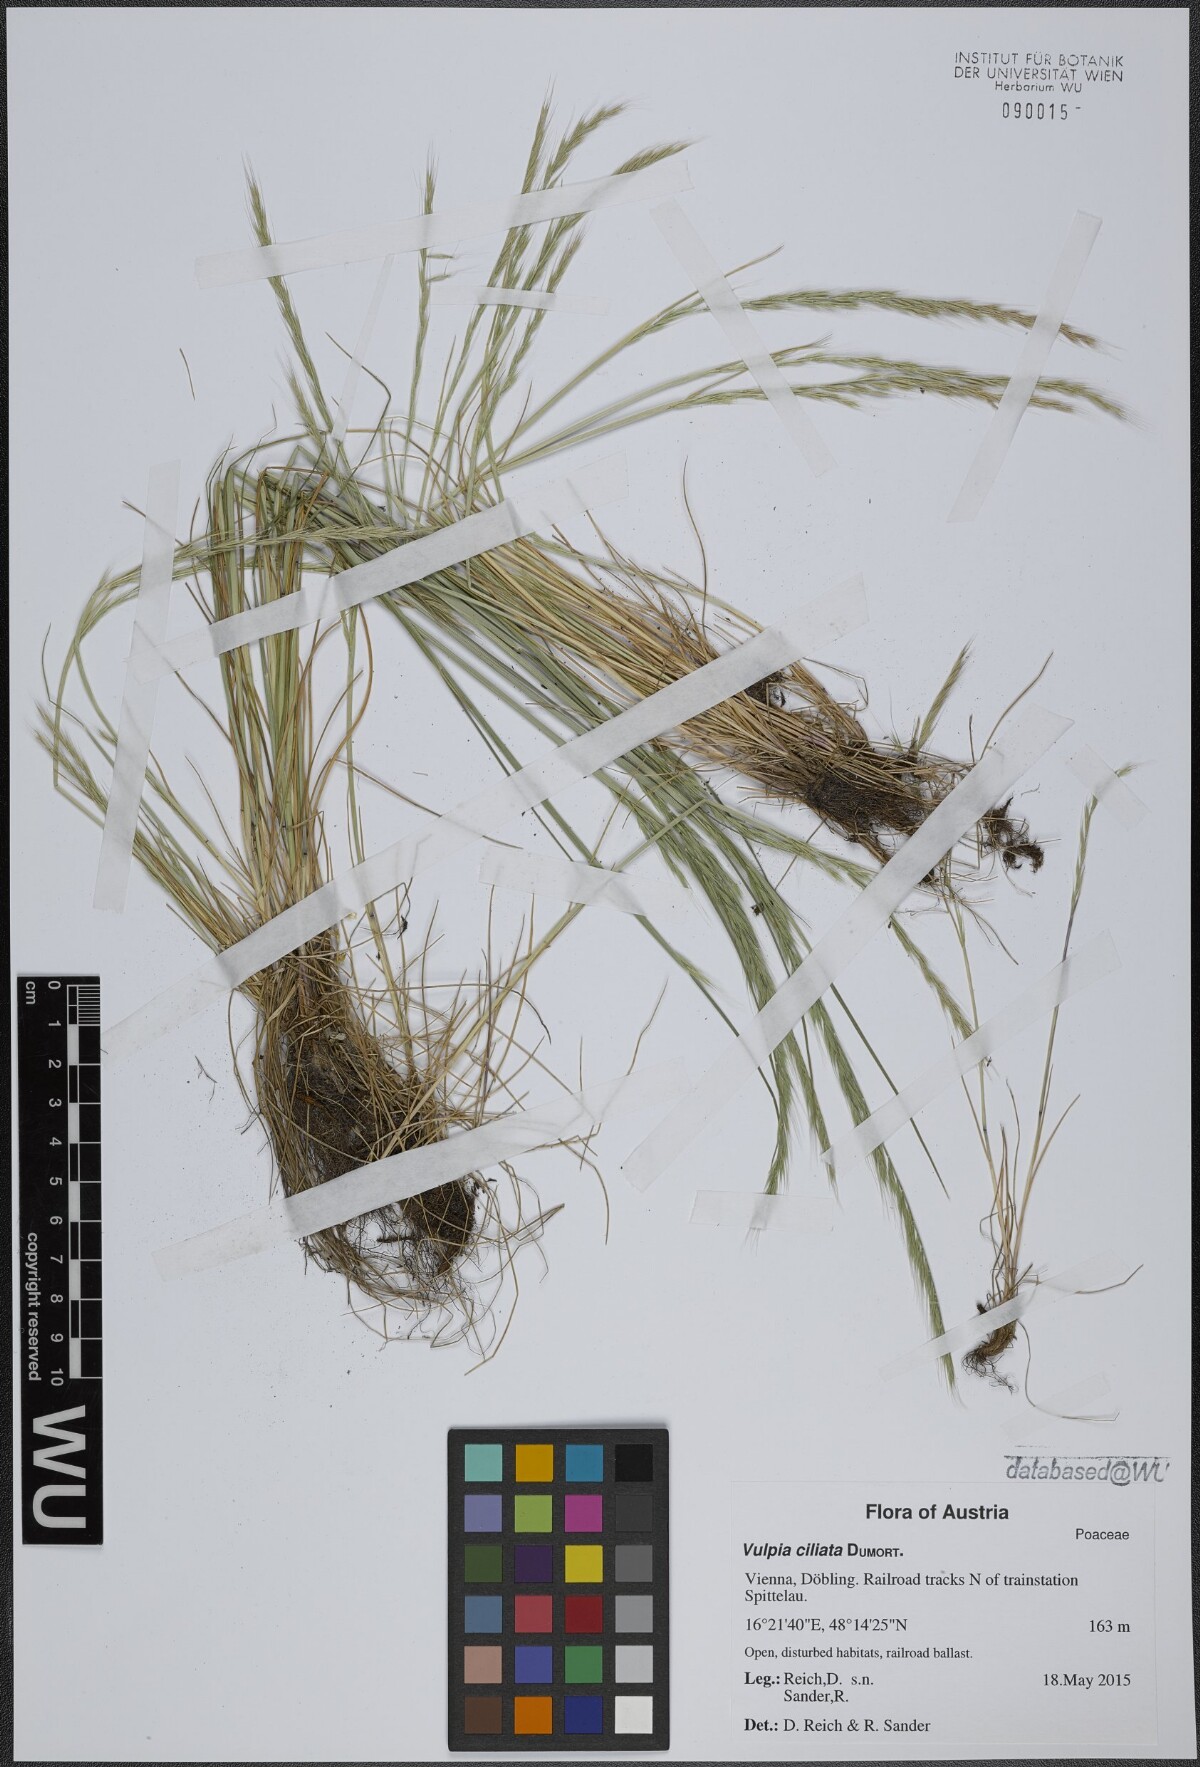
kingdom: Plantae
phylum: Tracheophyta
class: Liliopsida
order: Poales
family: Poaceae
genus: Festuca
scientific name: Festuca ambigua
